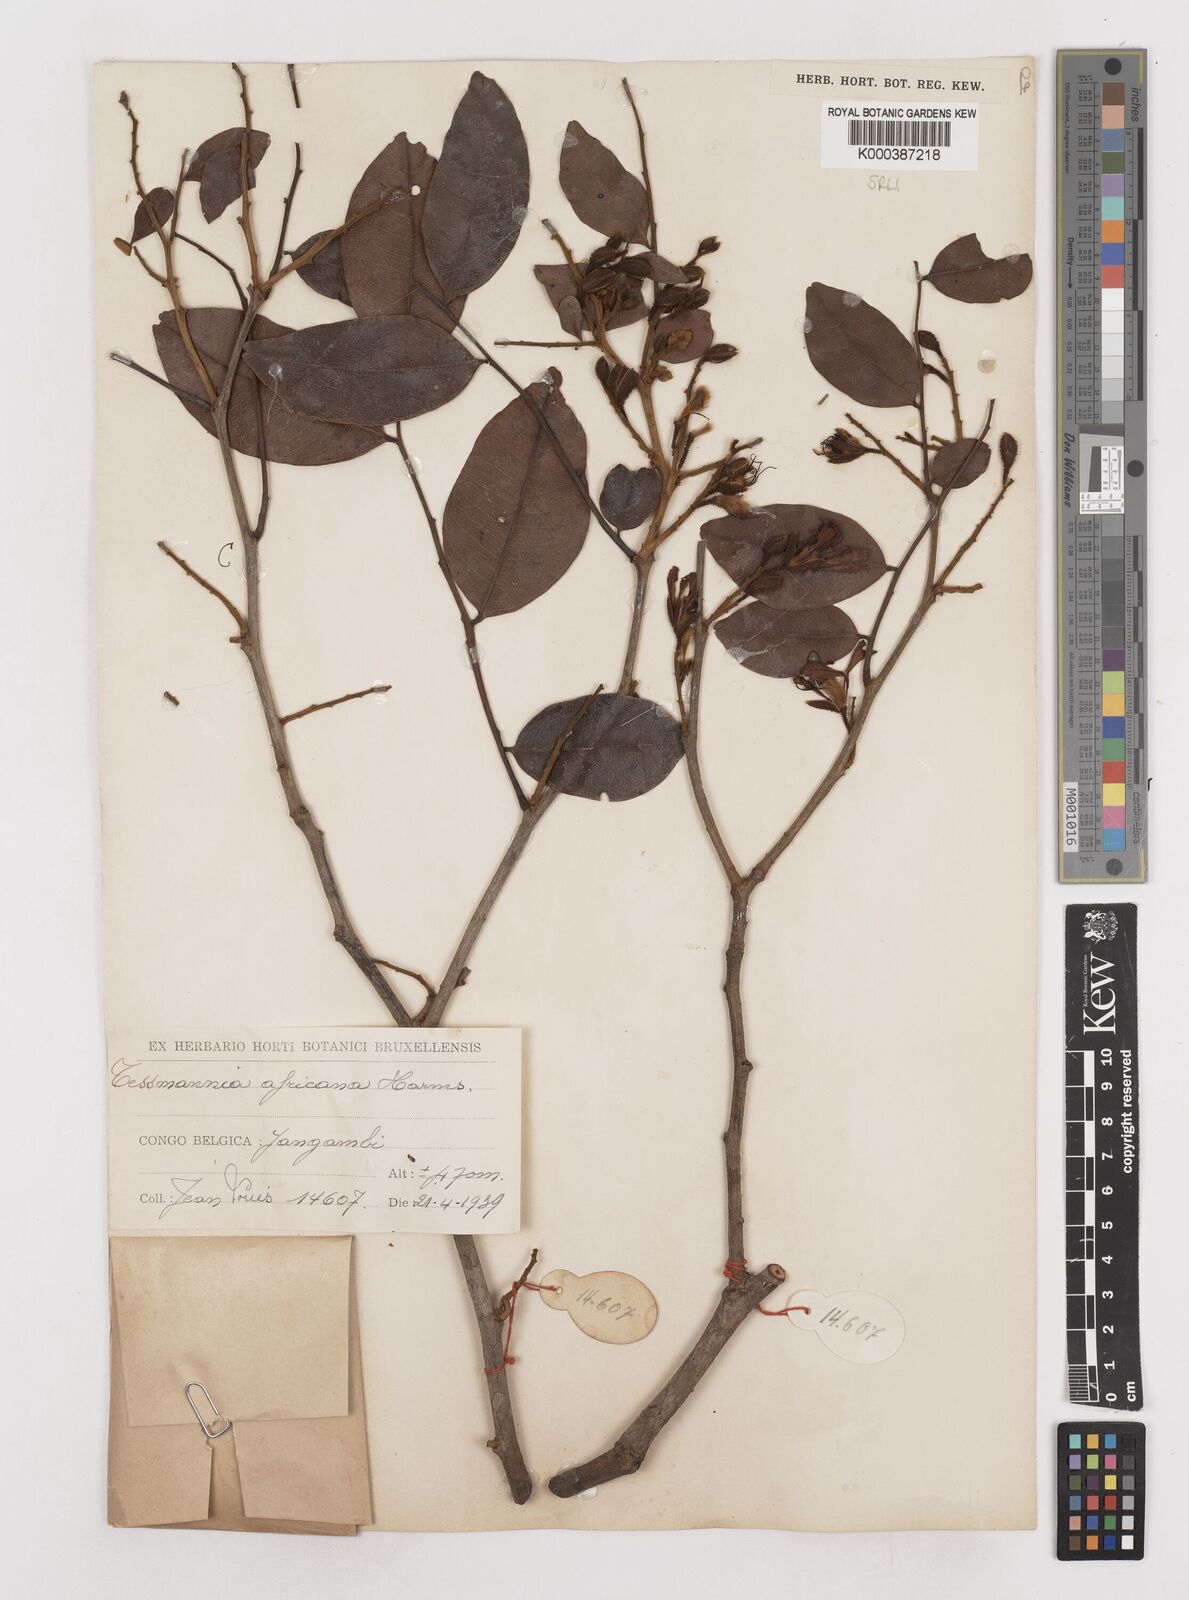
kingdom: Plantae
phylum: Tracheophyta
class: Magnoliopsida
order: Fabales
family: Fabaceae
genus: Tessmannia
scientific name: Tessmannia africana
